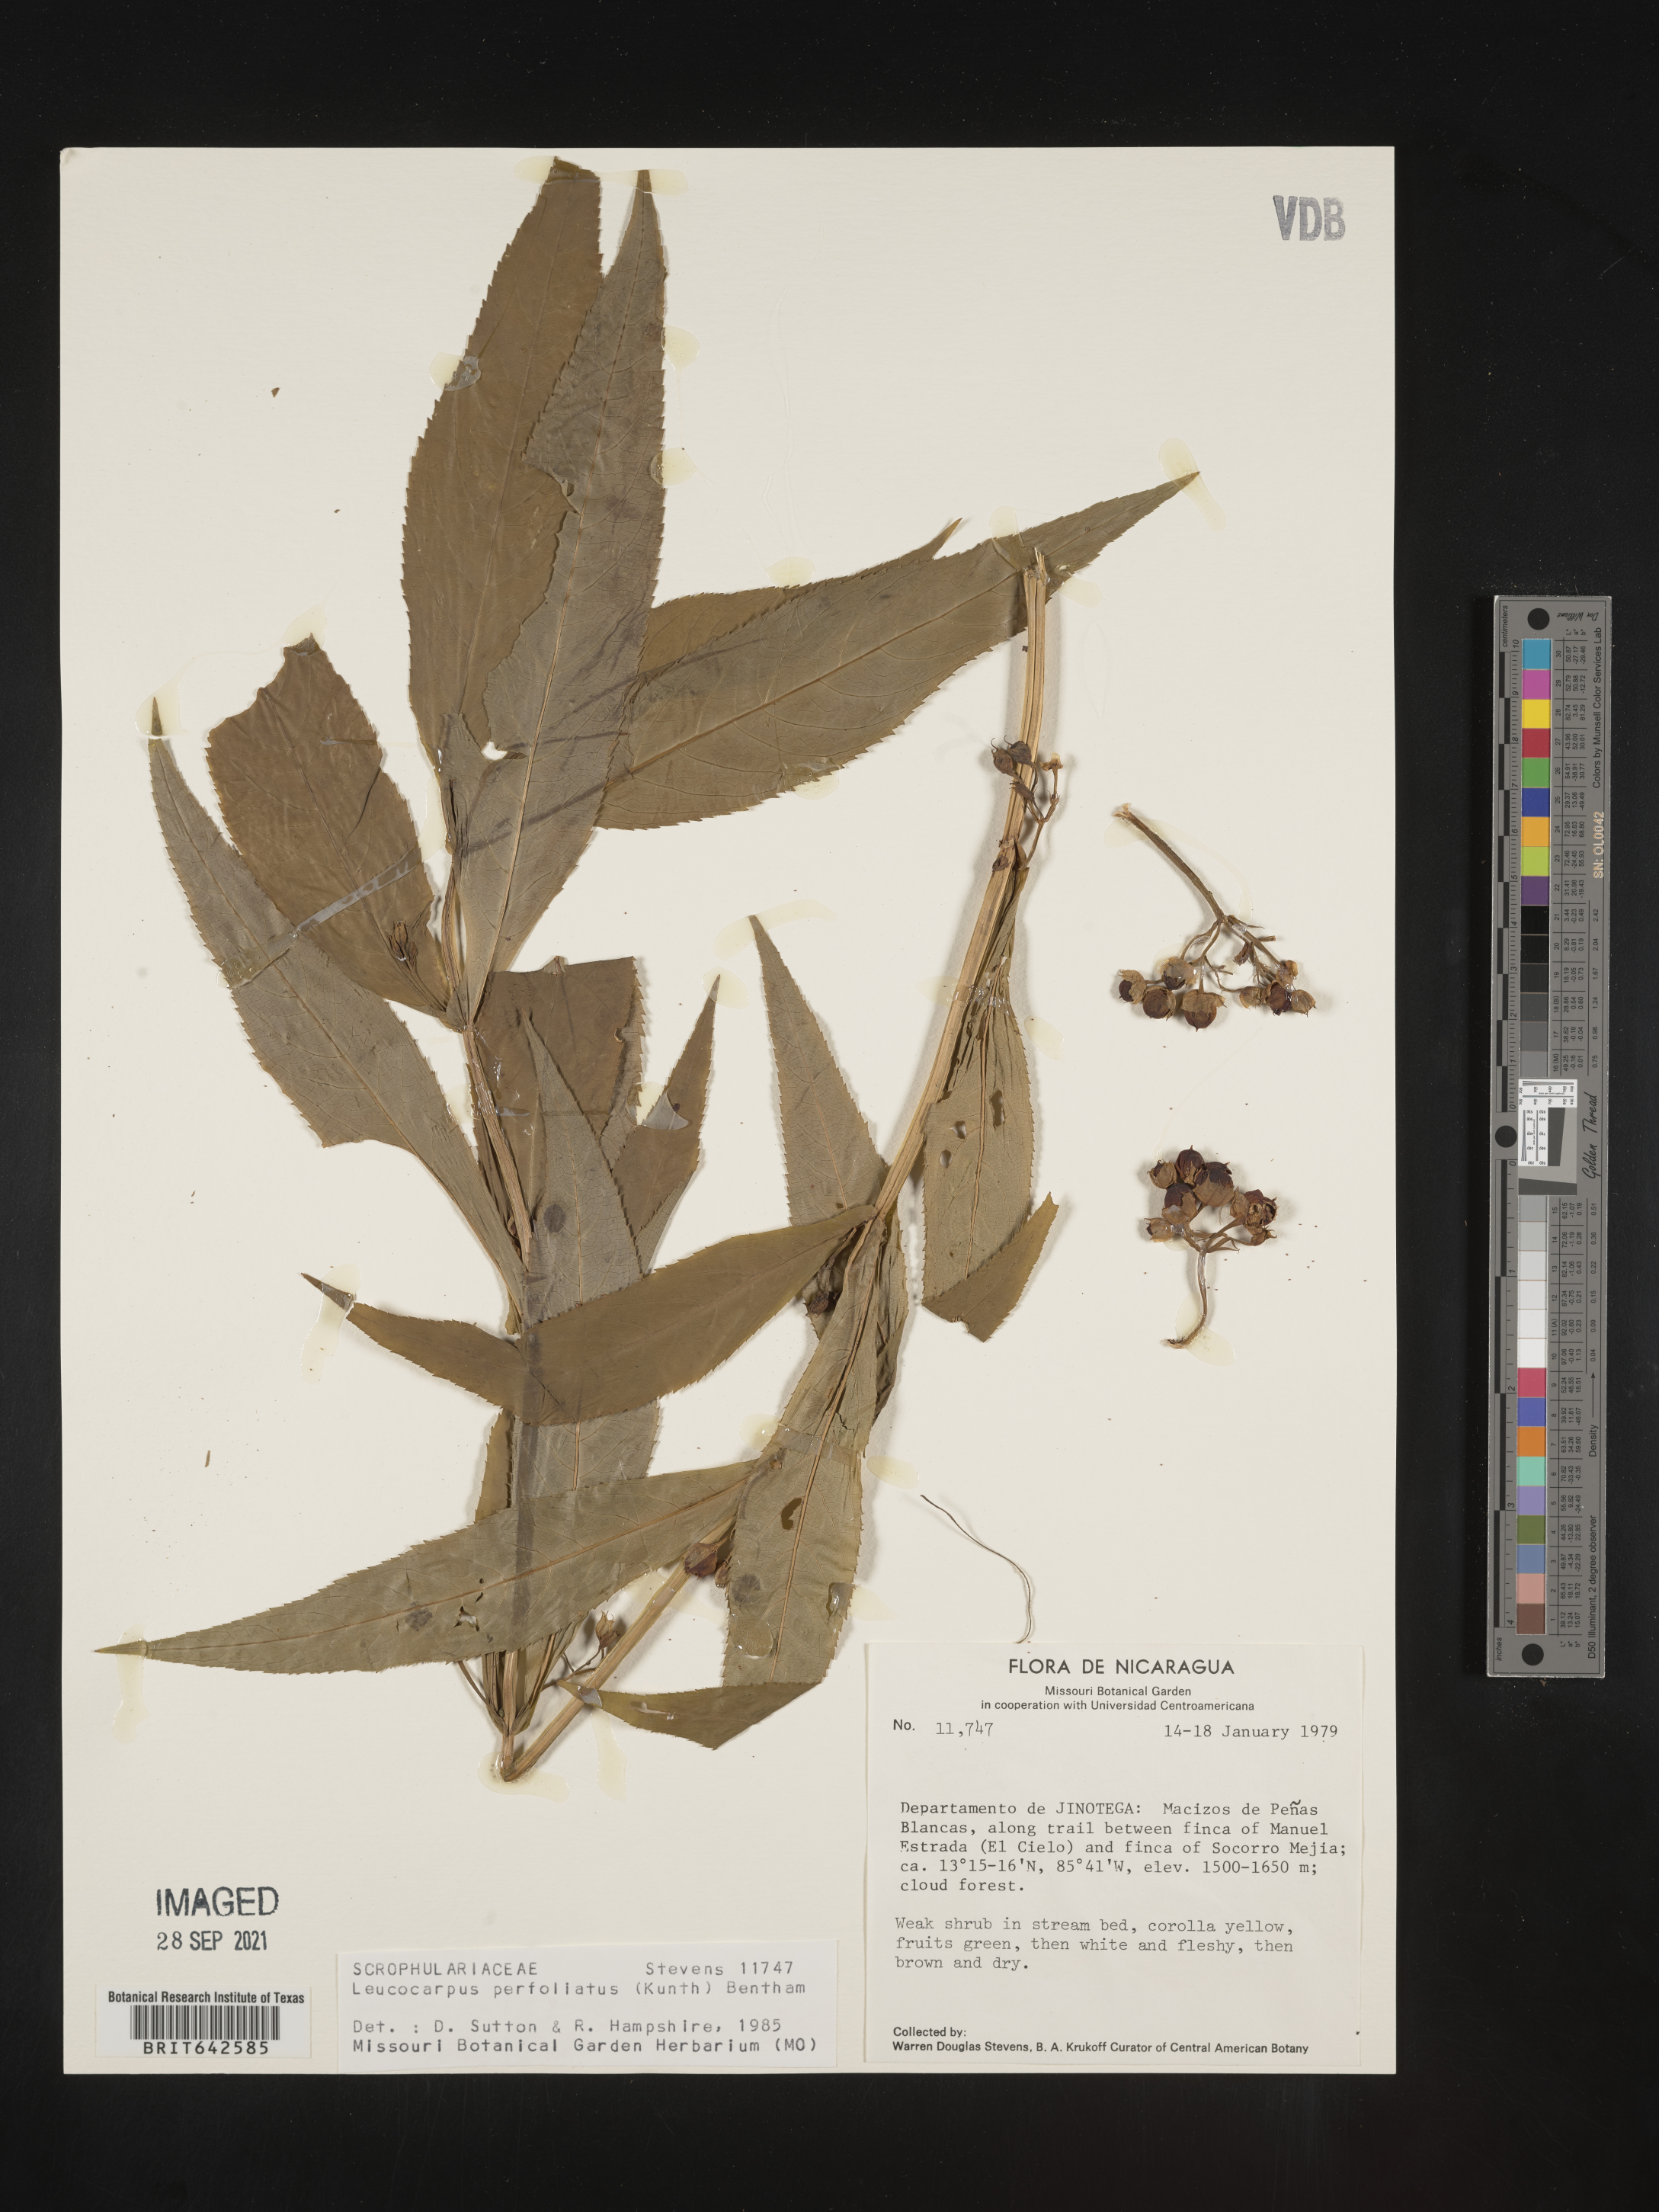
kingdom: Plantae
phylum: Tracheophyta
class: Magnoliopsida
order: Lamiales
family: Phrymaceae
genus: Leucocarpus
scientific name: Leucocarpus
